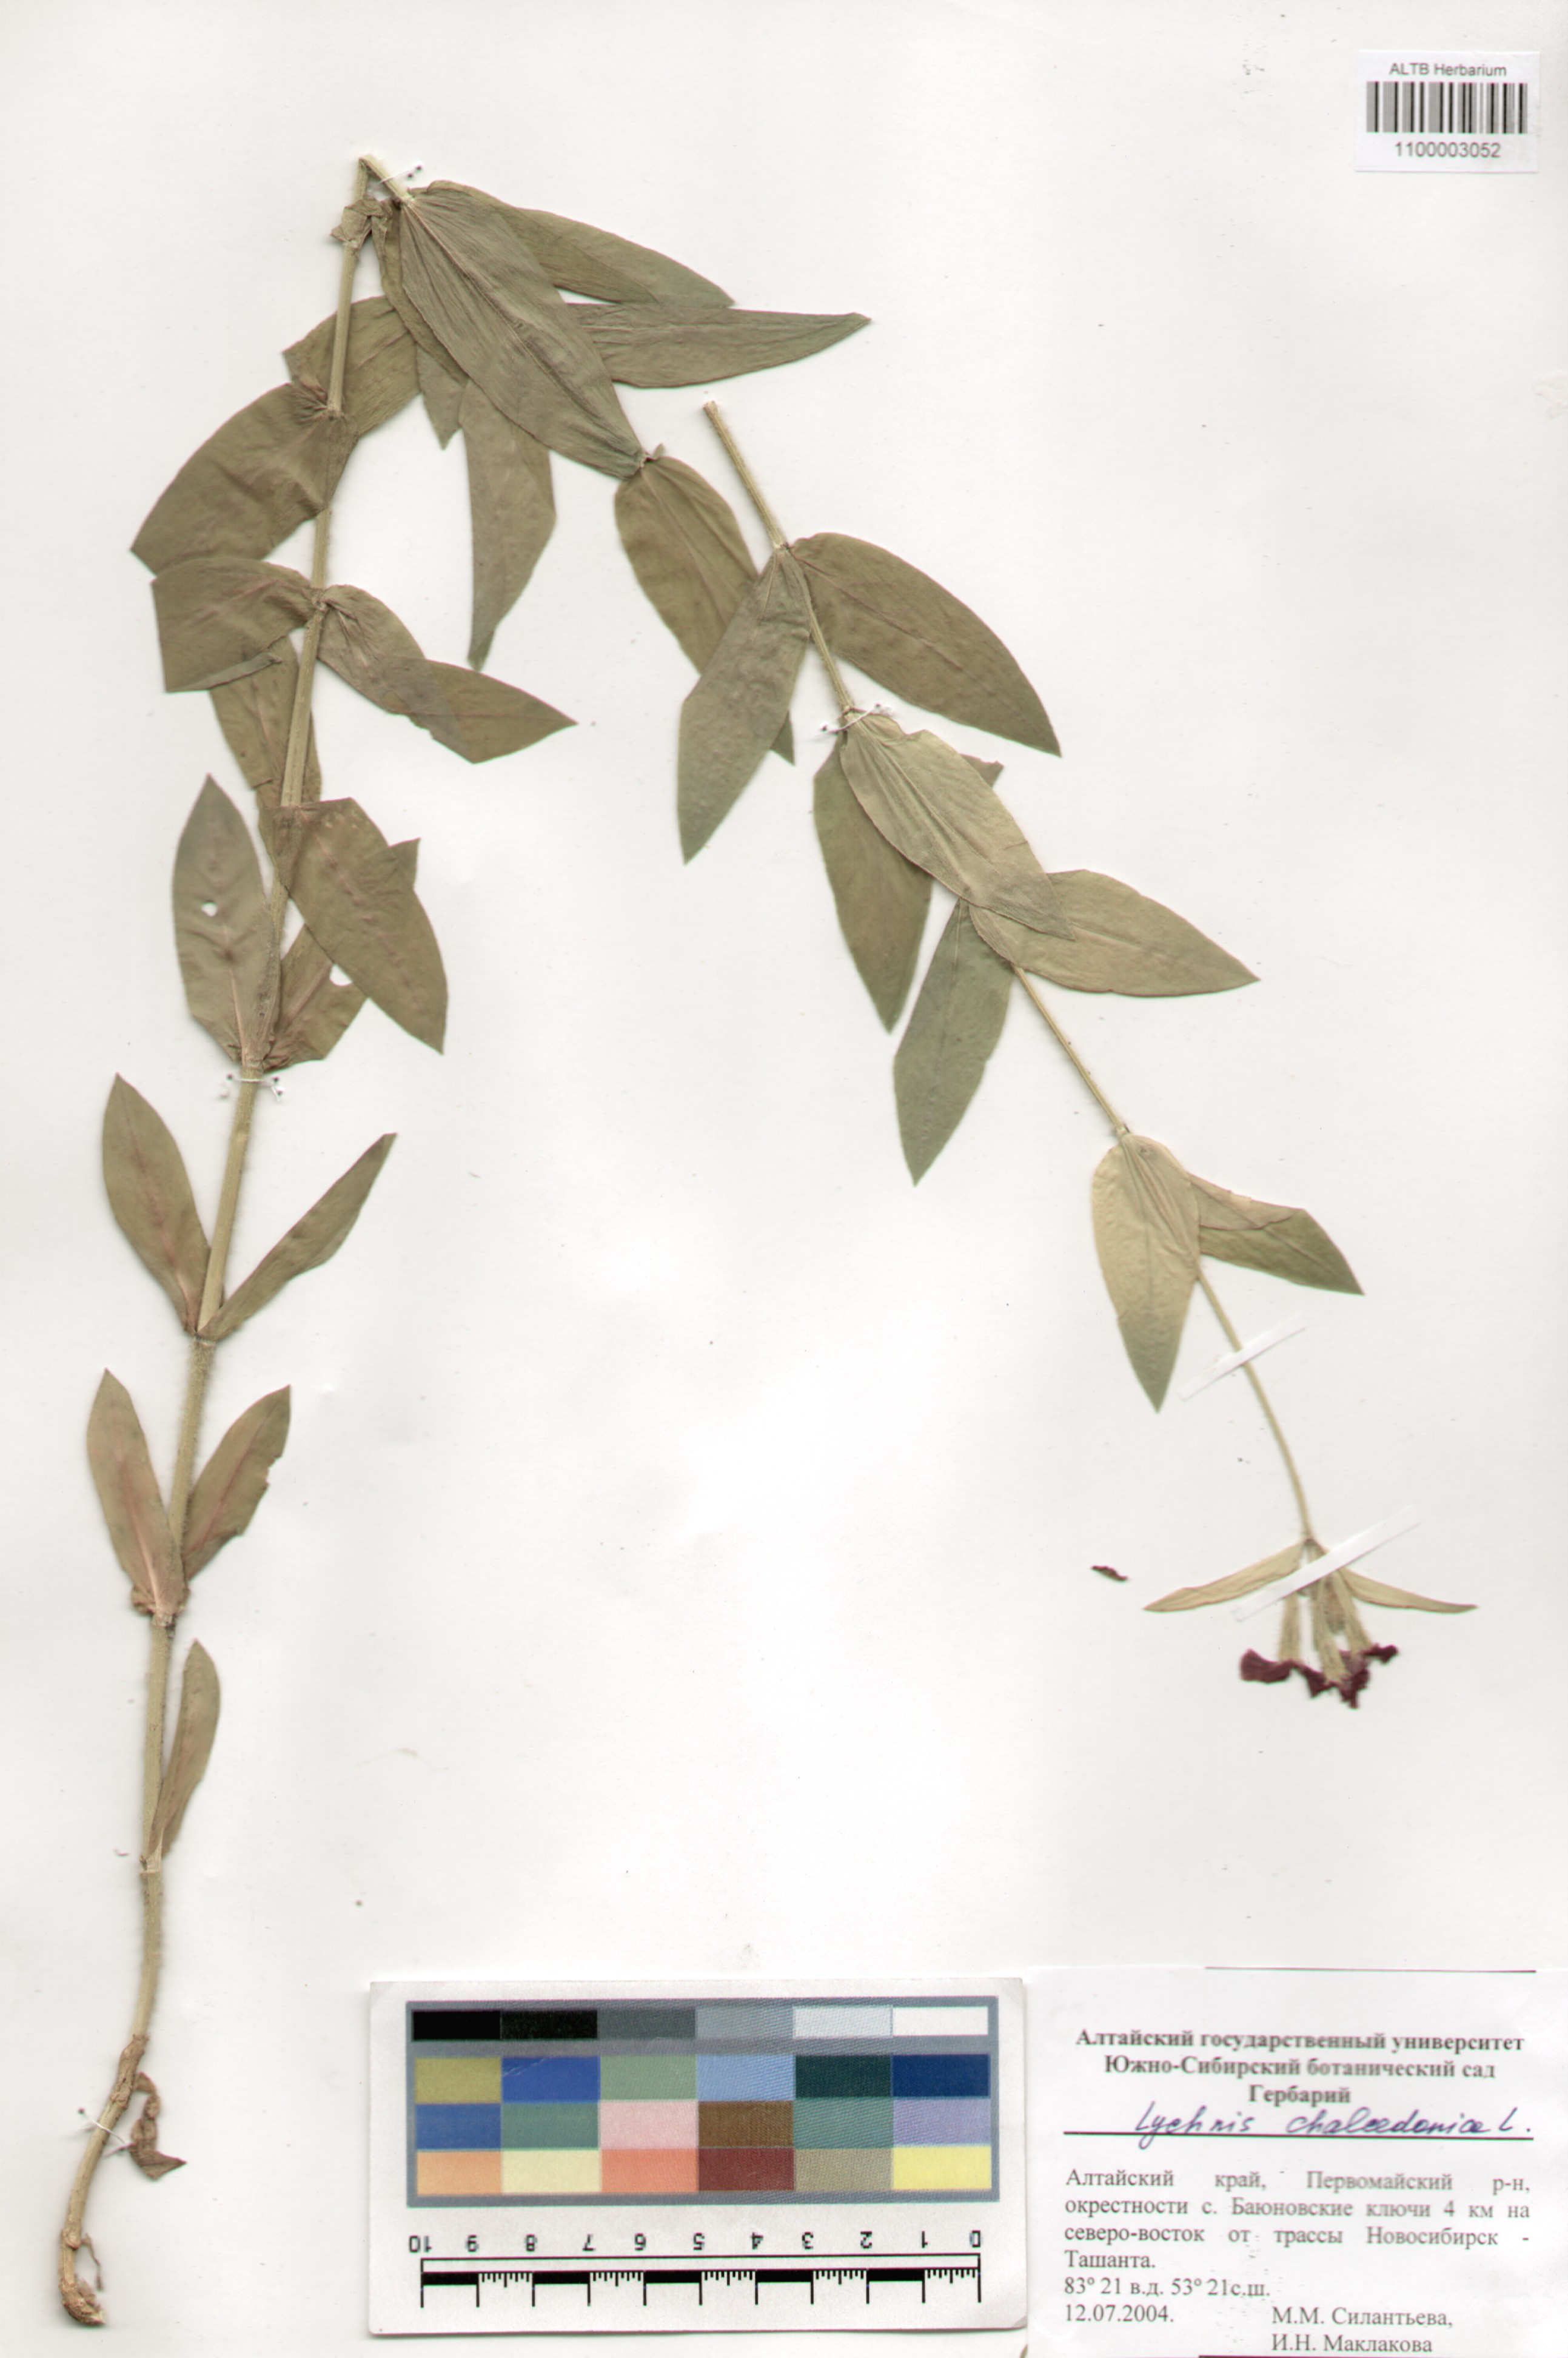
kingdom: Plantae
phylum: Tracheophyta
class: Magnoliopsida
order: Caryophyllales
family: Caryophyllaceae
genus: Silene
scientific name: Silene chalcedonica
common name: Maltese-cross
